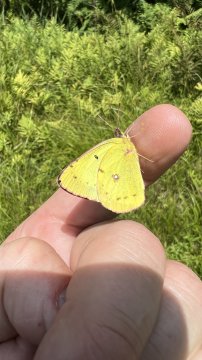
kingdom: Animalia
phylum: Arthropoda
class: Insecta
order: Lepidoptera
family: Pieridae
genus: Colias
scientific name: Colias philodice
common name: Clouded Sulphur
